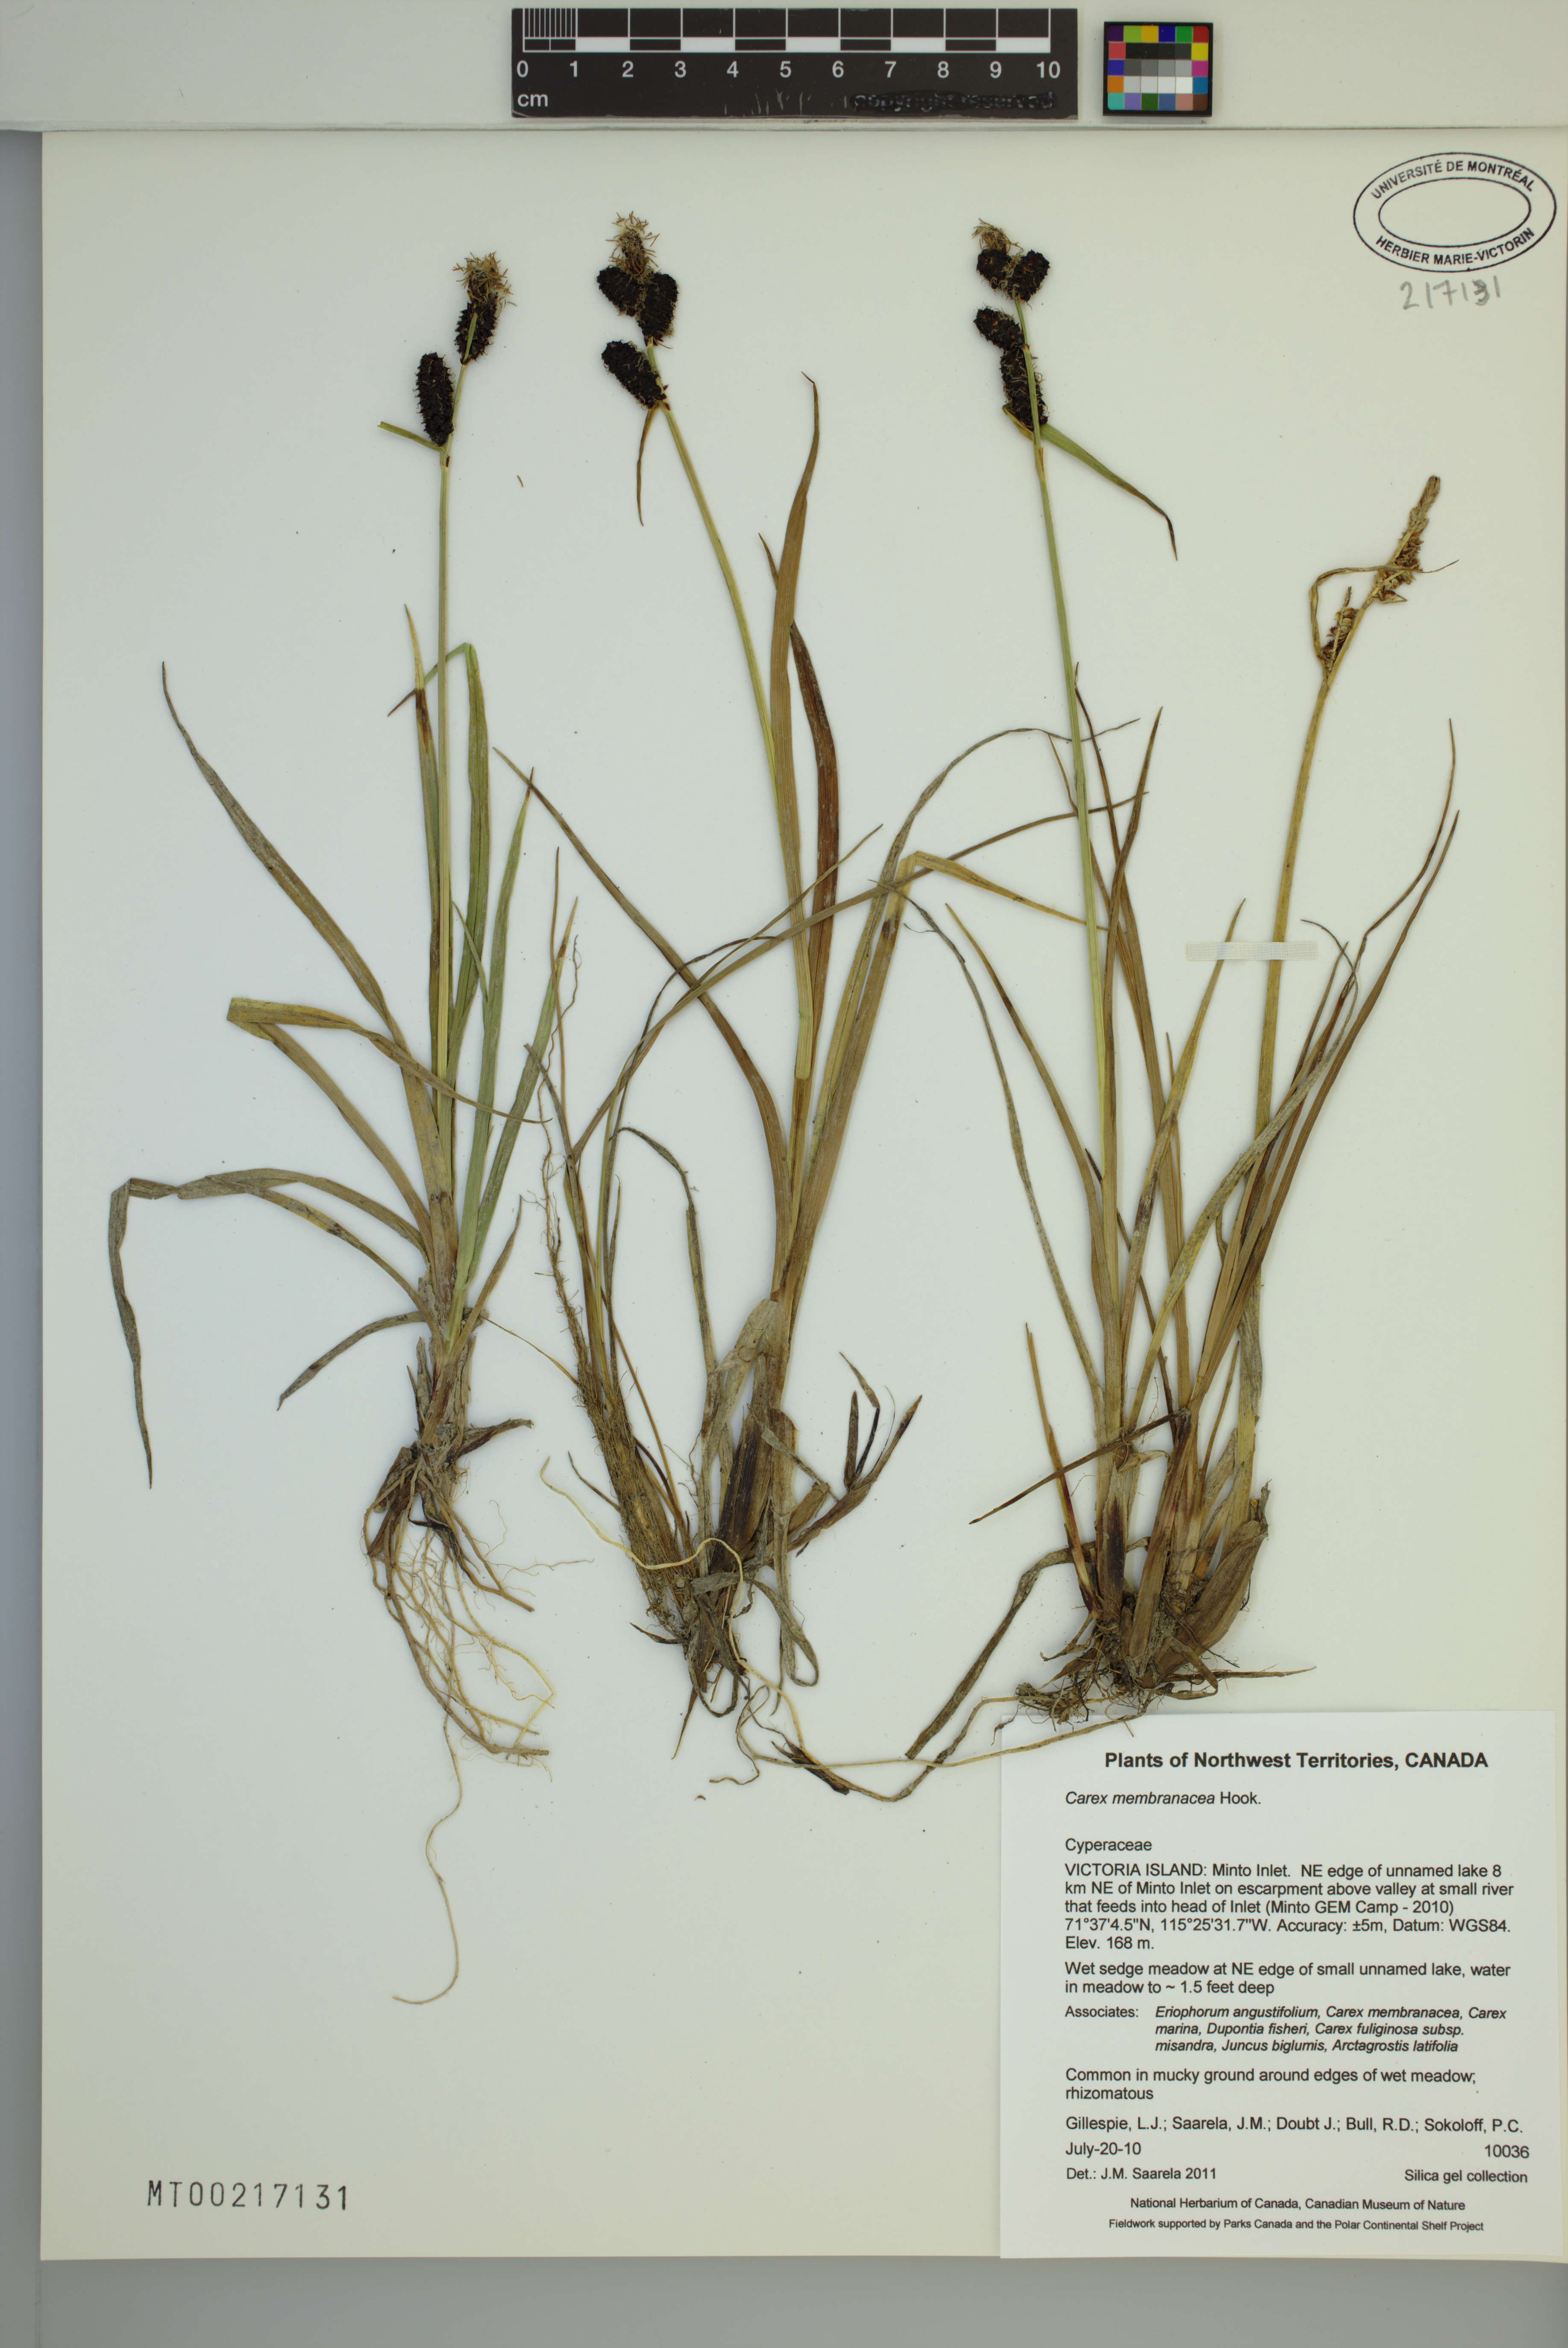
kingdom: Plantae
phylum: Tracheophyta
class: Liliopsida
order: Poales
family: Cyperaceae
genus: Carex
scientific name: Carex membranacea
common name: Fragile sedge
